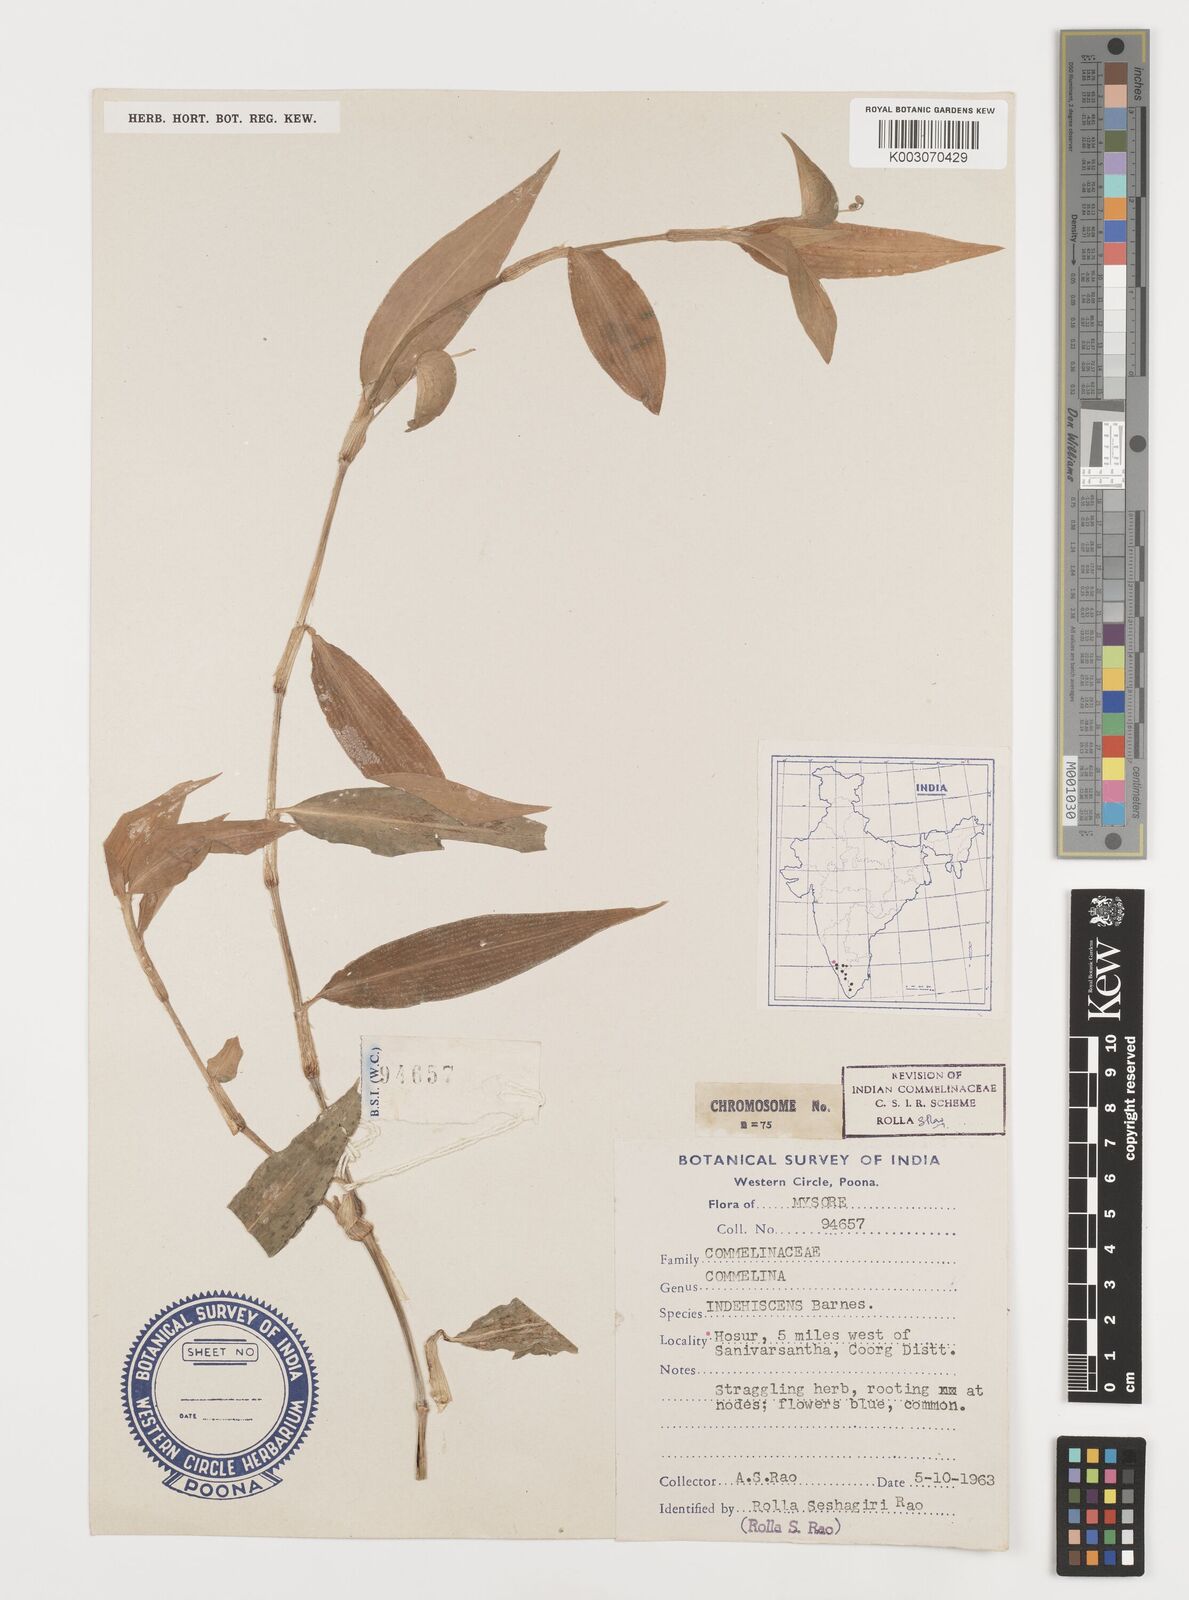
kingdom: Plantae
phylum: Tracheophyta
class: Liliopsida
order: Commelinales
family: Commelinaceae
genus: Commelina
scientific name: Commelina indehiscens
